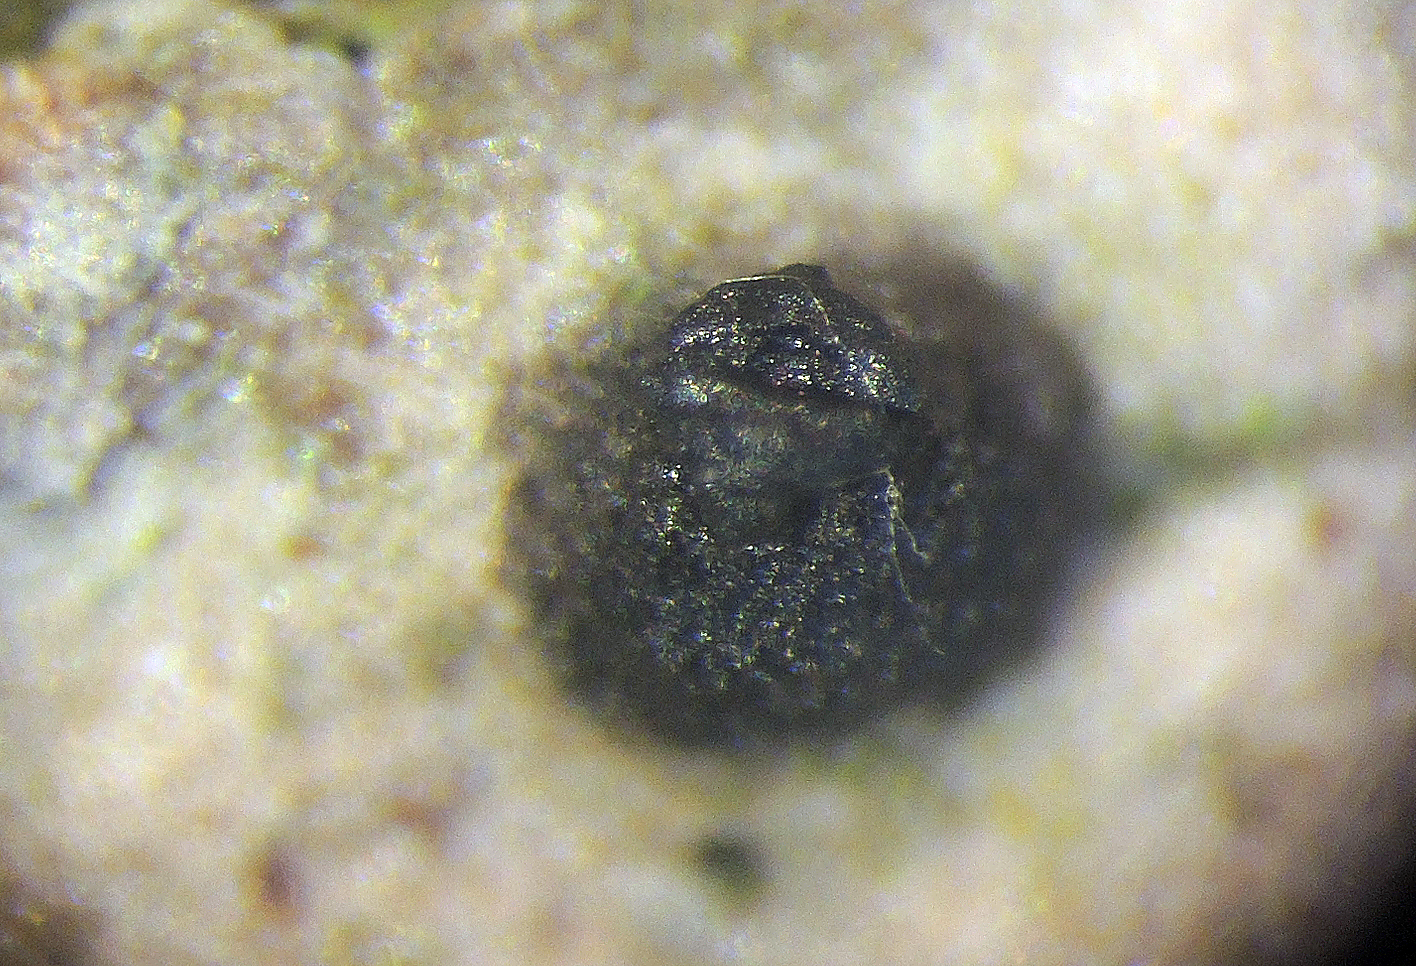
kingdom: Fungi
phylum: Ascomycota
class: Dothideomycetes
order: Pleosporales
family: Massariaceae
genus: Navicella
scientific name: Navicella pileata
